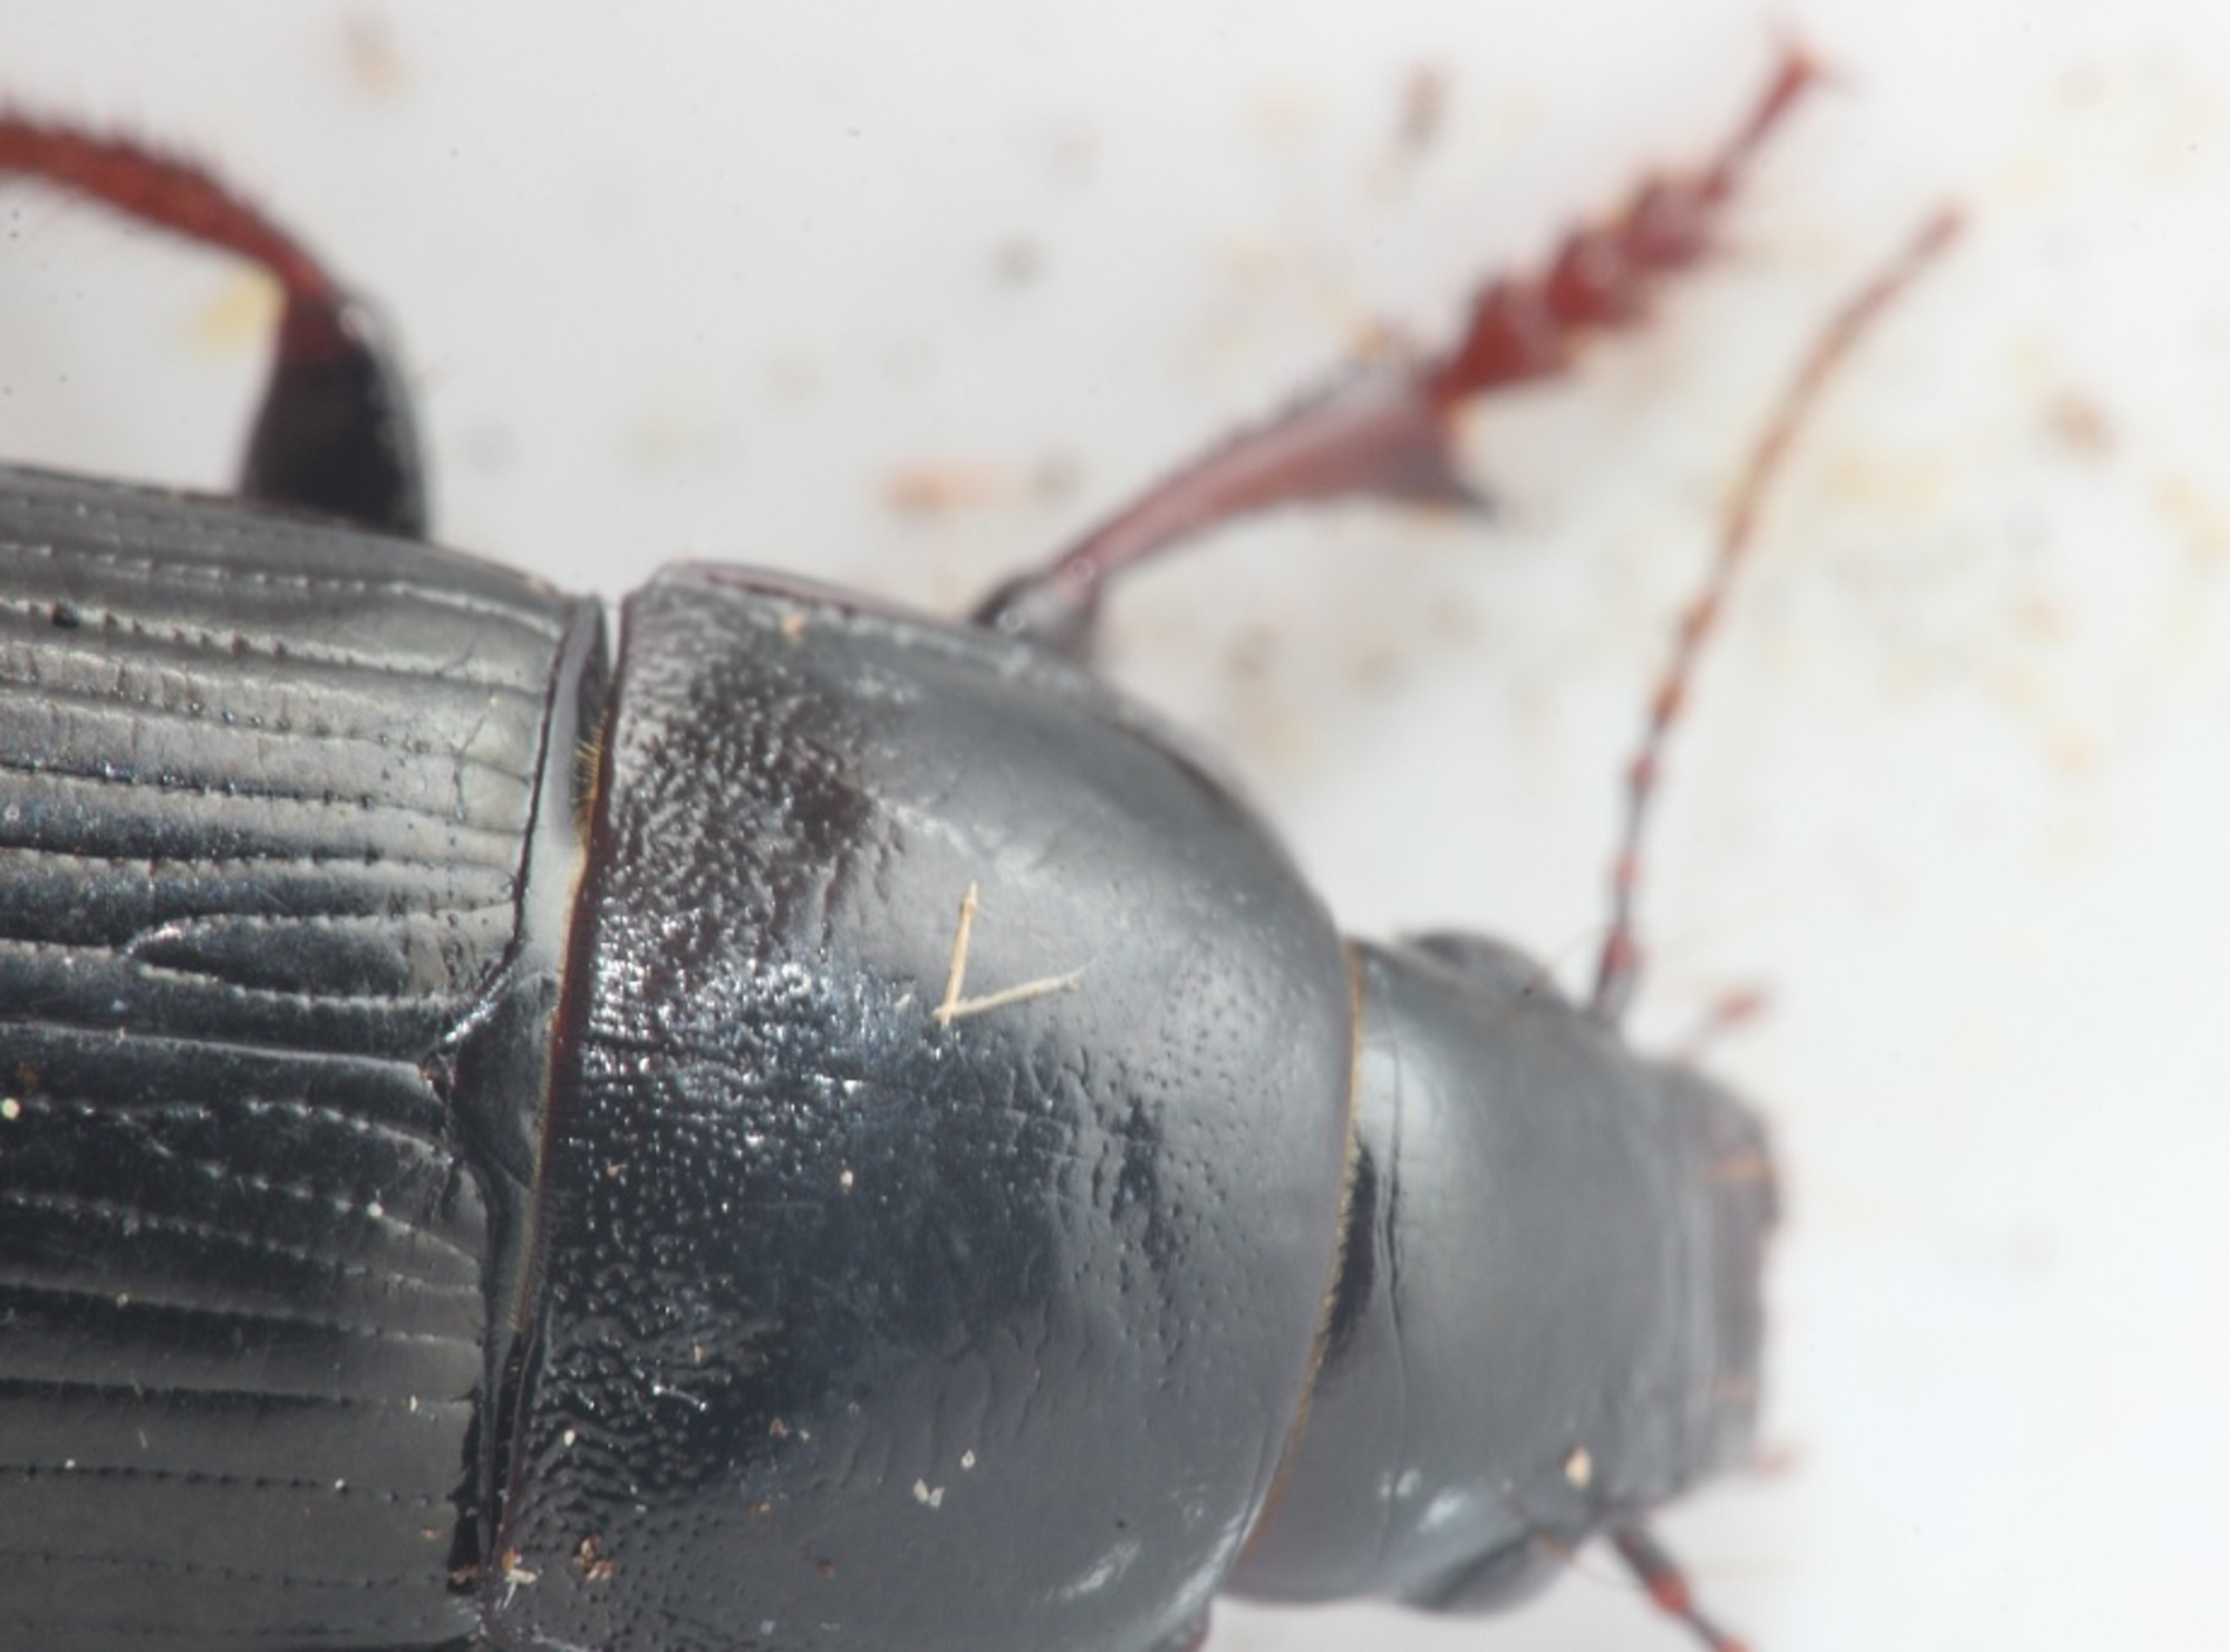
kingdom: Animalia
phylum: Arthropoda
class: Insecta
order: Coleoptera
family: Carabidae
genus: Zabrus
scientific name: Zabrus tenebrioides
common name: Aksløber
